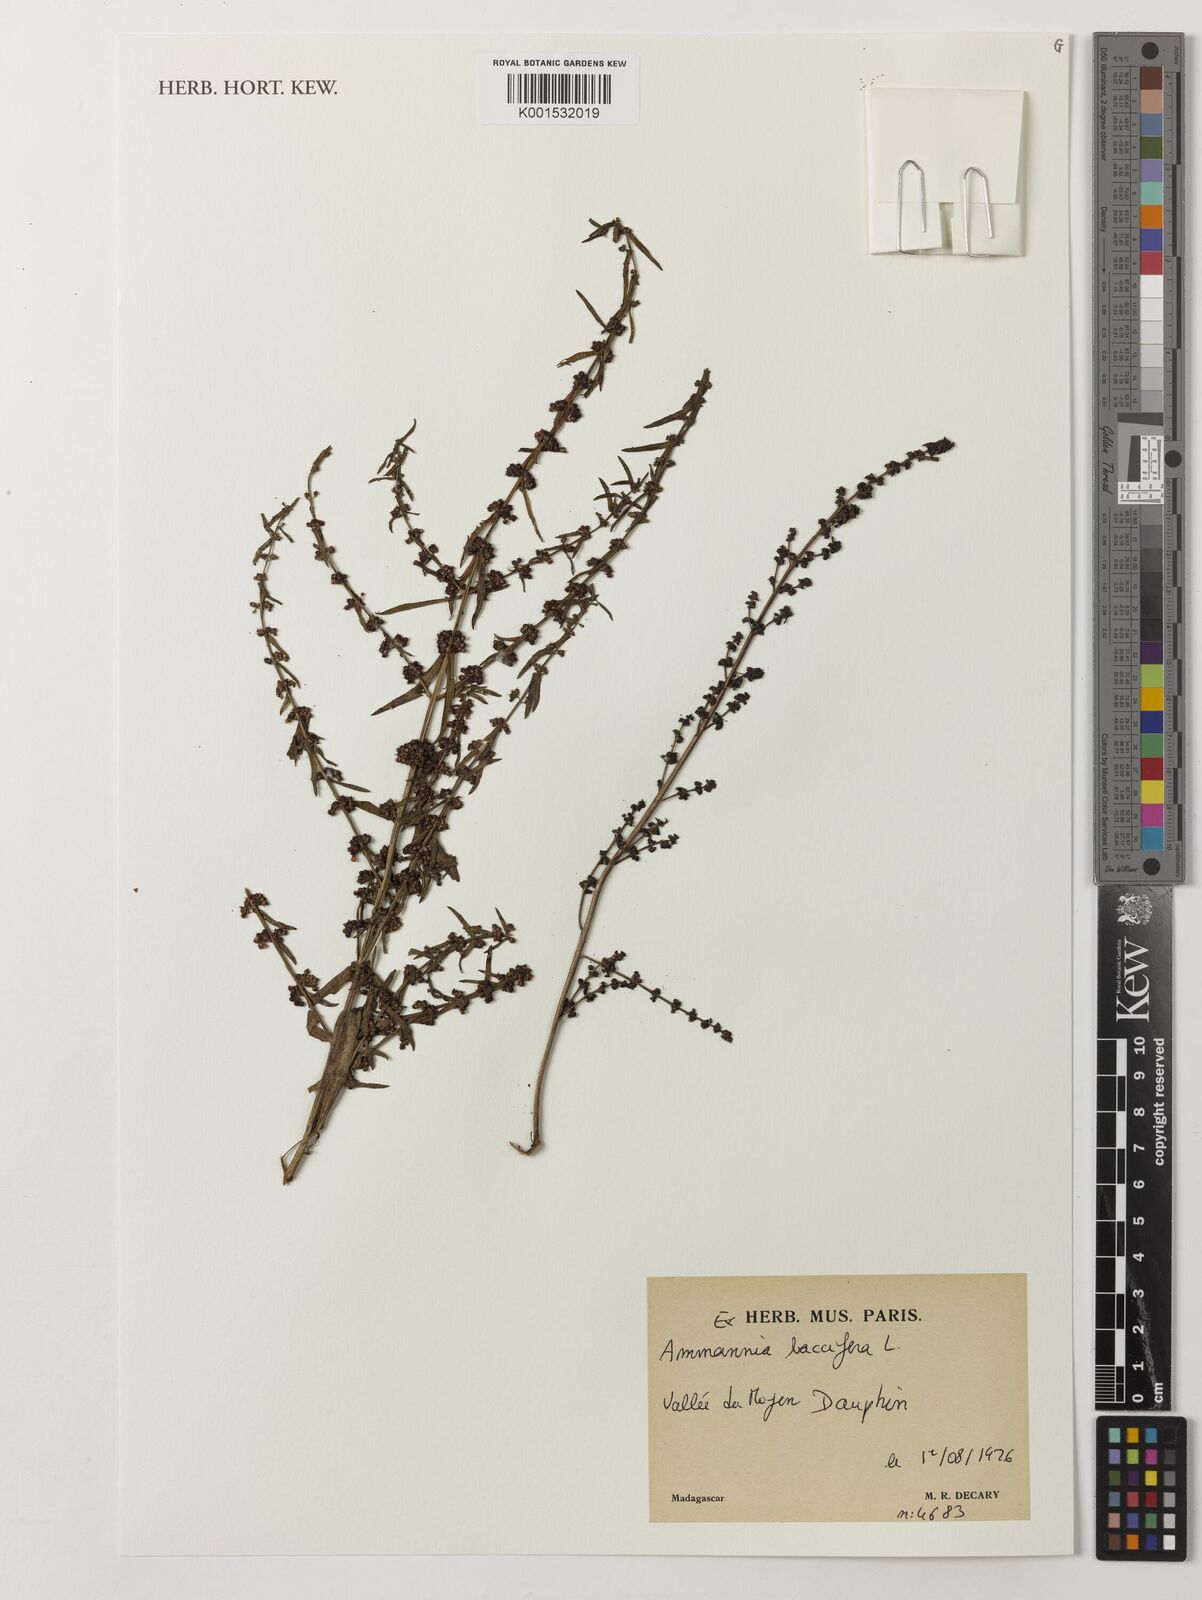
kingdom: Plantae
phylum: Tracheophyta
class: Magnoliopsida
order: Myrtales
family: Lythraceae
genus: Ammannia
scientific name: Ammannia baccifera
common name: Blistering ammania
